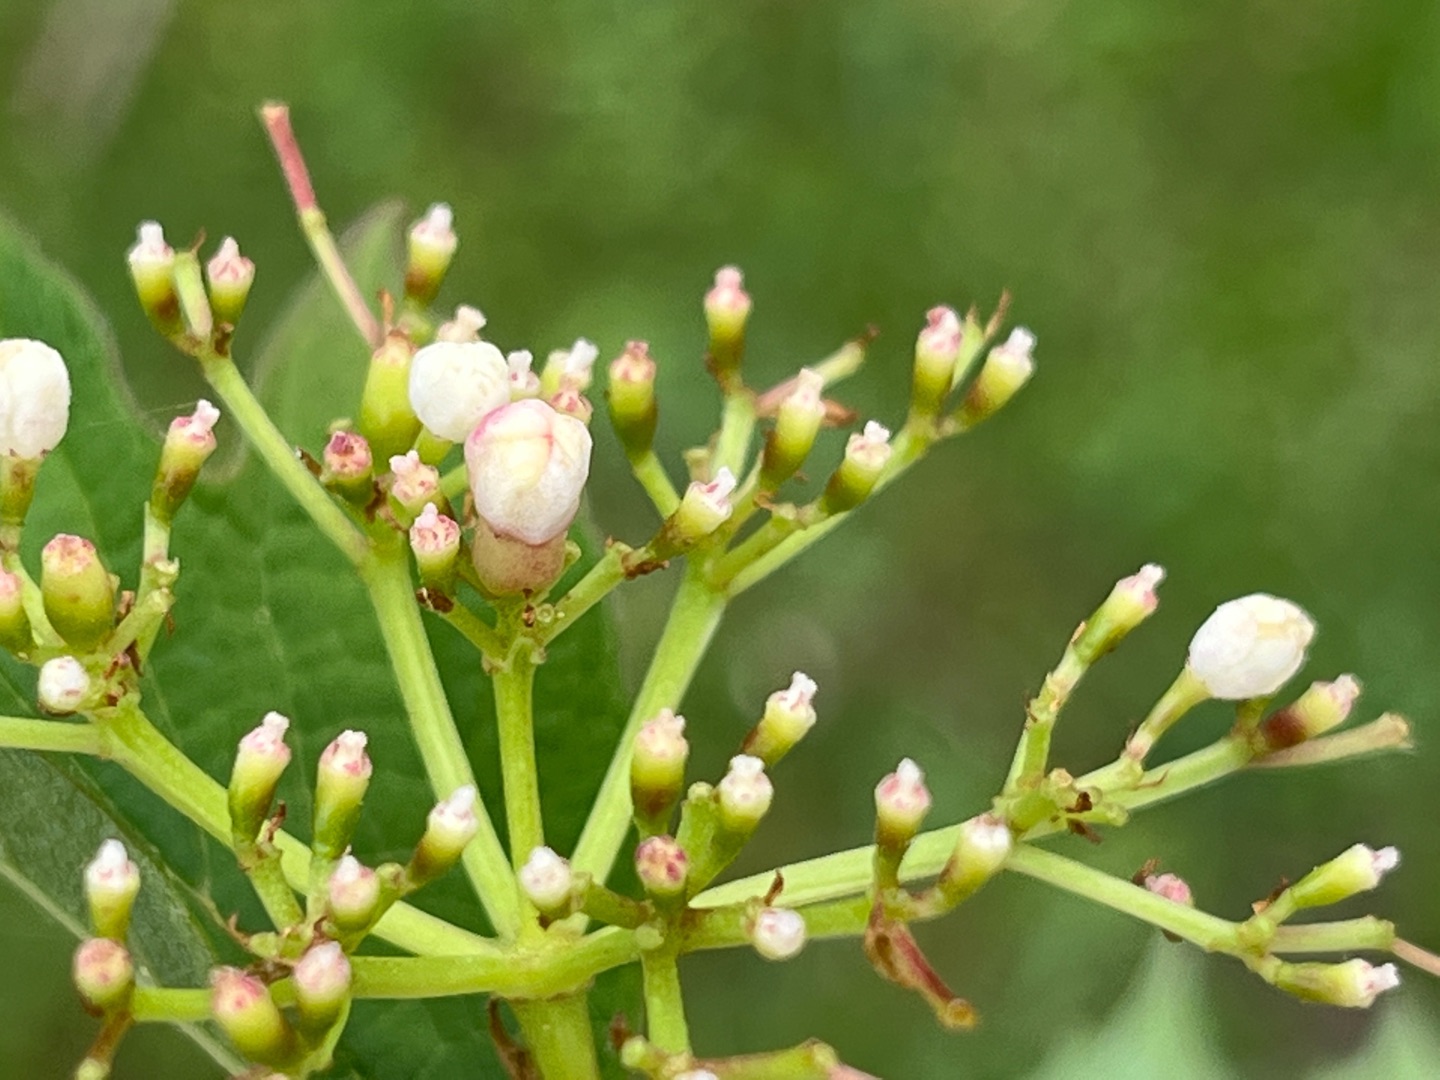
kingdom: Animalia
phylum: Arthropoda
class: Insecta
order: Diptera
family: Cecidomyiidae
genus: Contarinia
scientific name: Contarinia viburnorum
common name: Kvalkvedgalmyg
